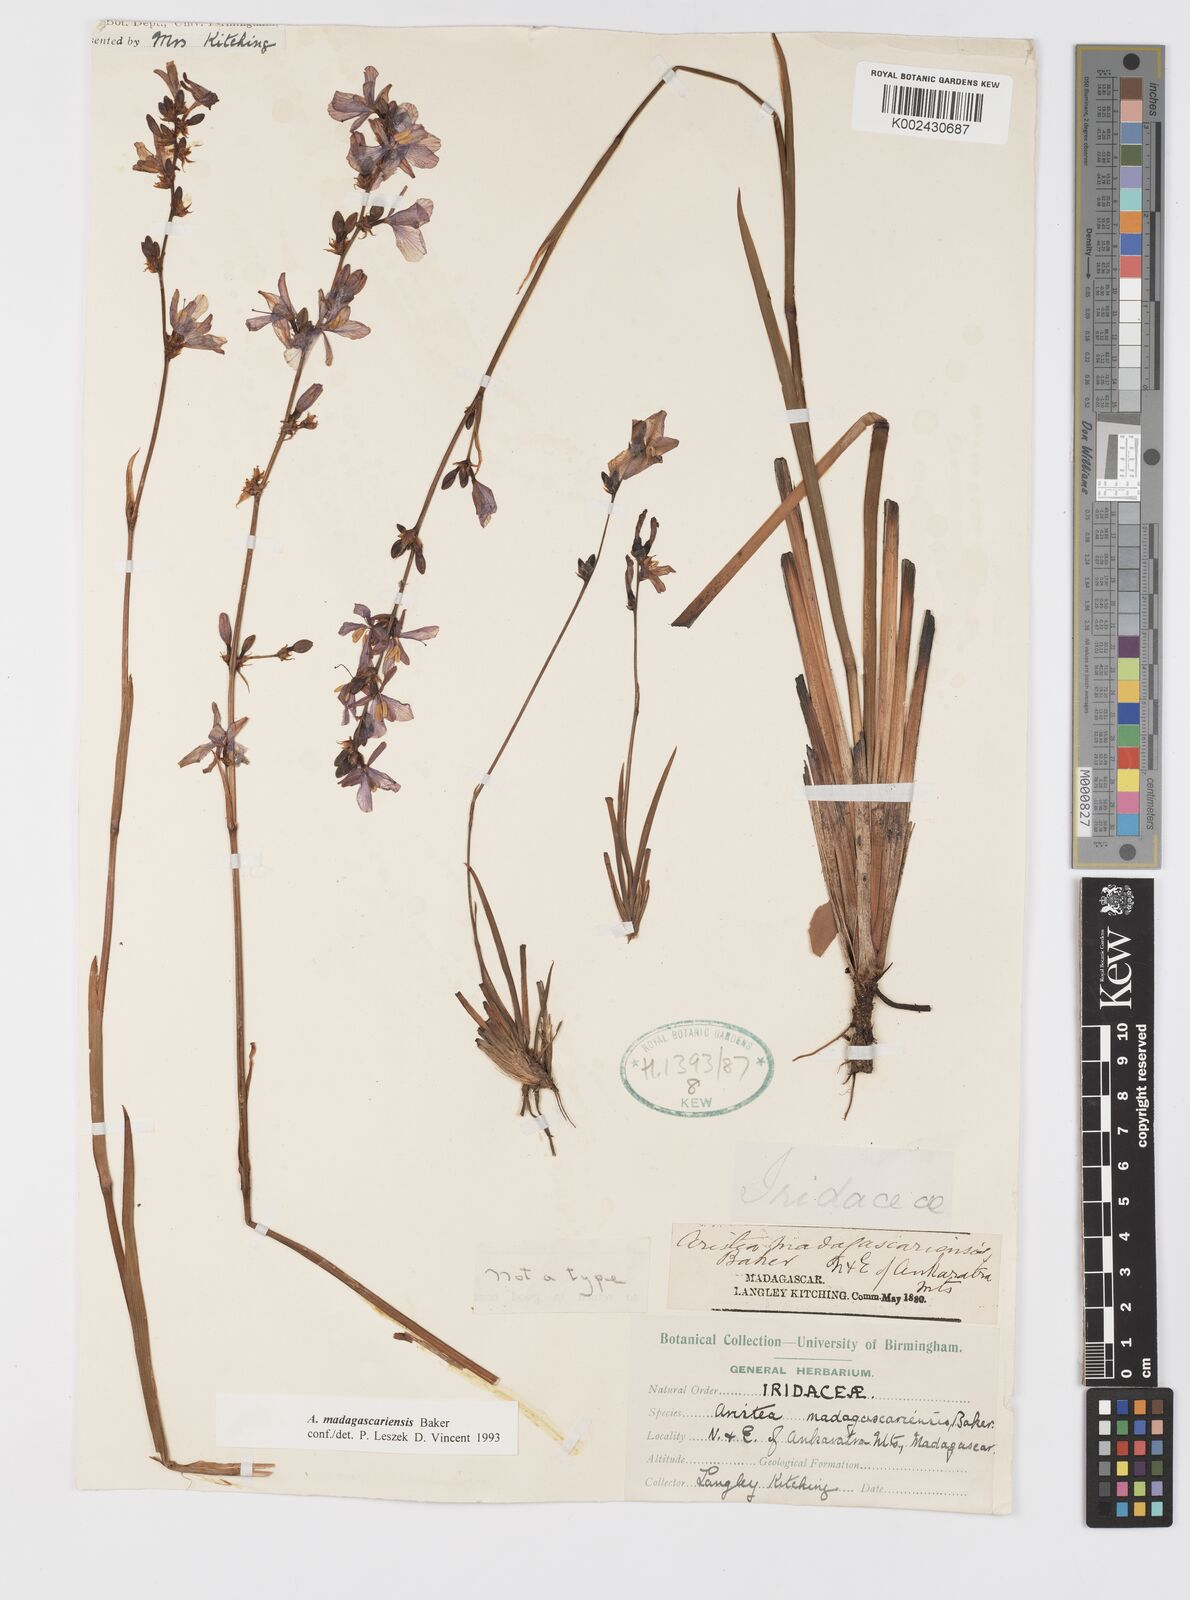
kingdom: Plantae
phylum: Tracheophyta
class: Liliopsida
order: Asparagales
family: Iridaceae
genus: Aristea
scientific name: Aristea madagascariensis
